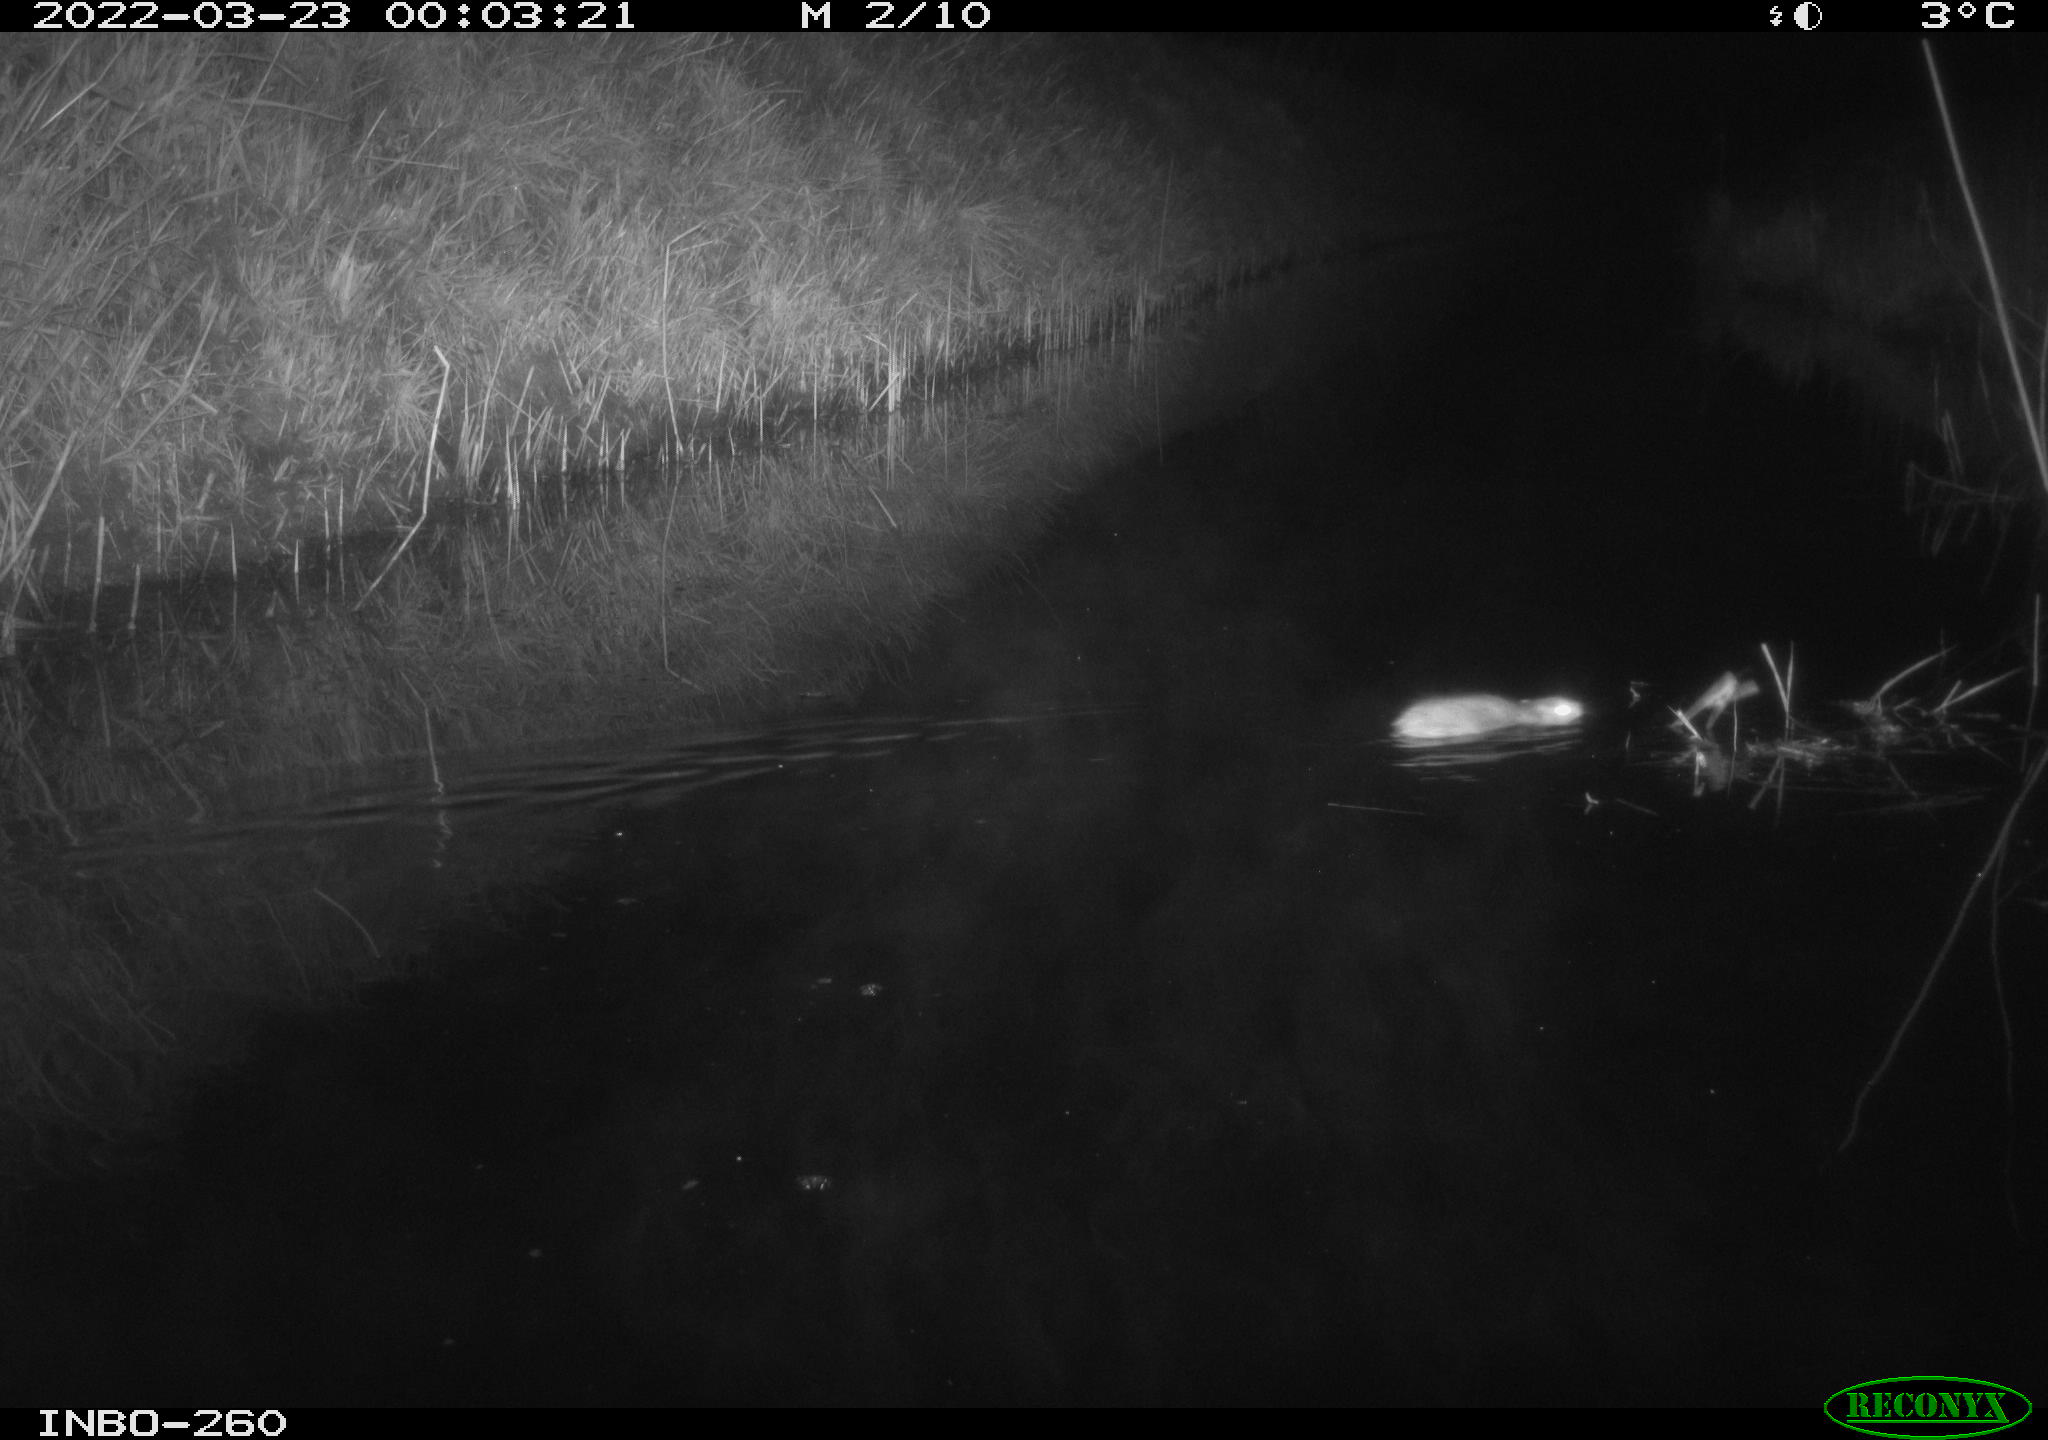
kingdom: Animalia
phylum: Chordata
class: Mammalia
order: Rodentia
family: Muridae
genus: Rattus
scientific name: Rattus norvegicus
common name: Brown rat
